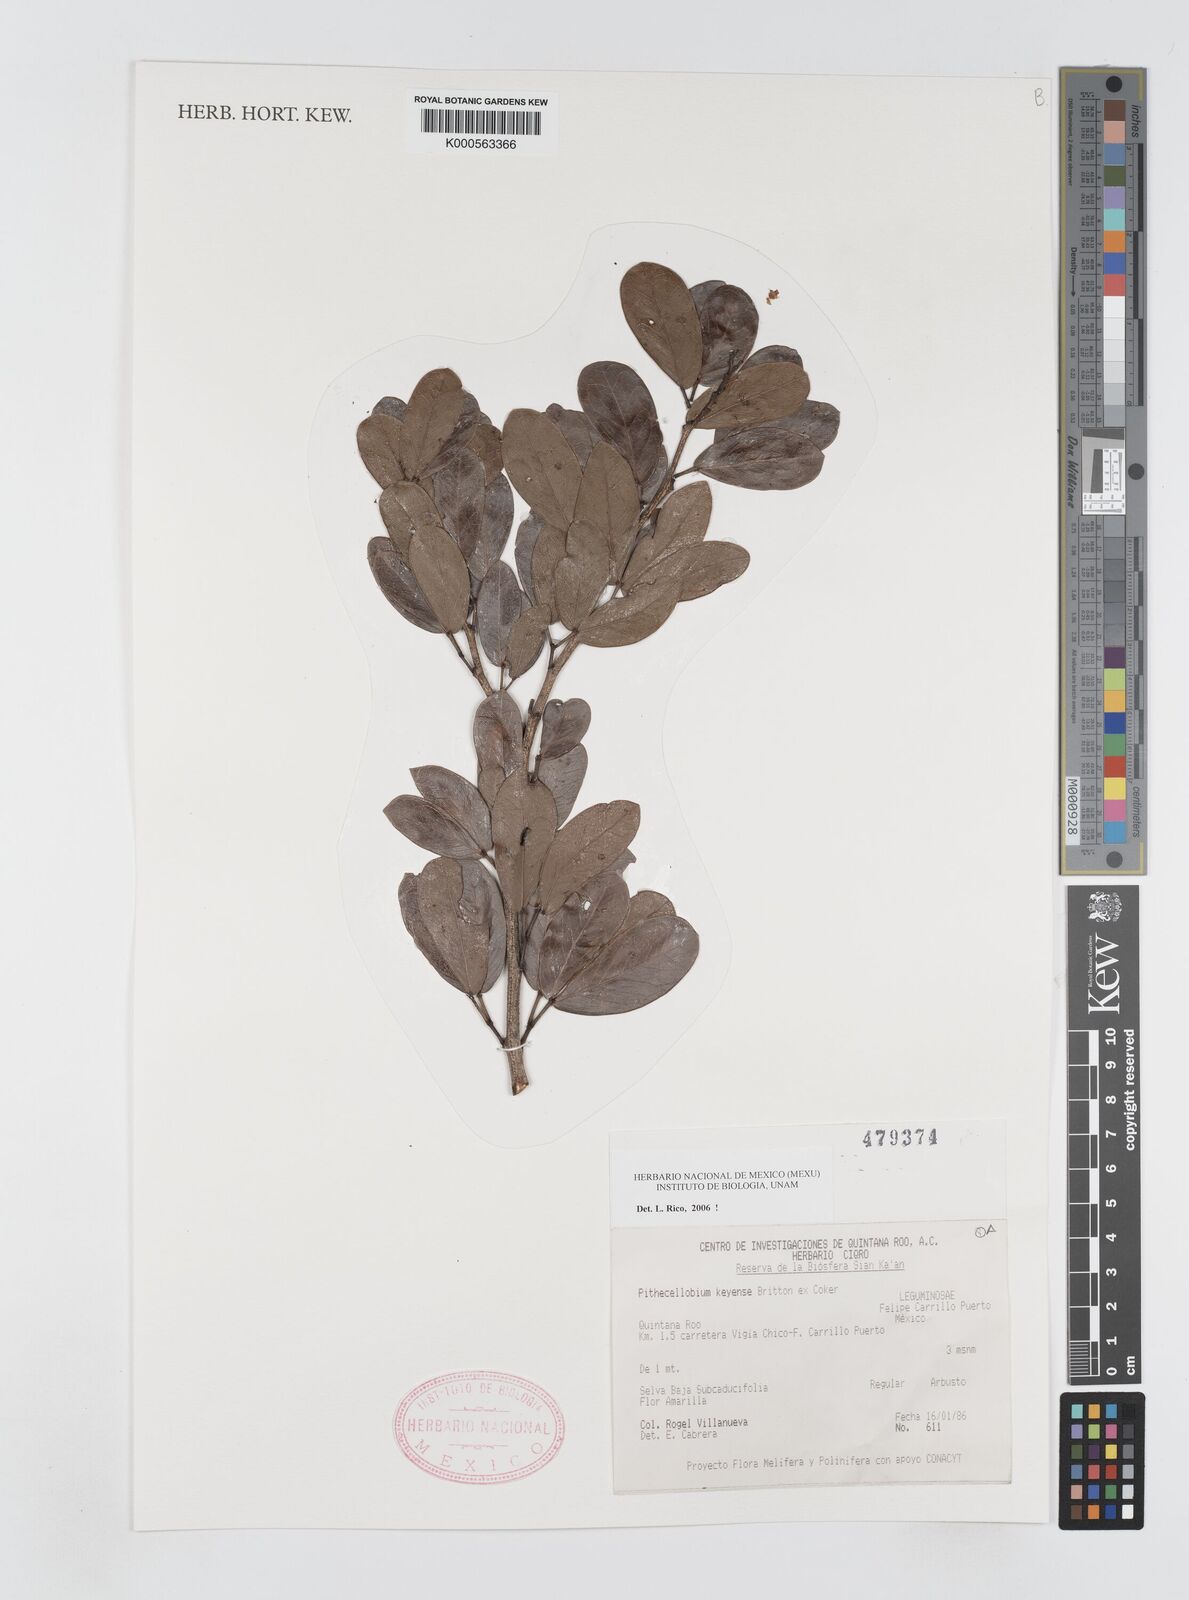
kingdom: Plantae
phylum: Tracheophyta
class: Magnoliopsida
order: Fabales
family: Fabaceae
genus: Pithecellobium
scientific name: Pithecellobium
